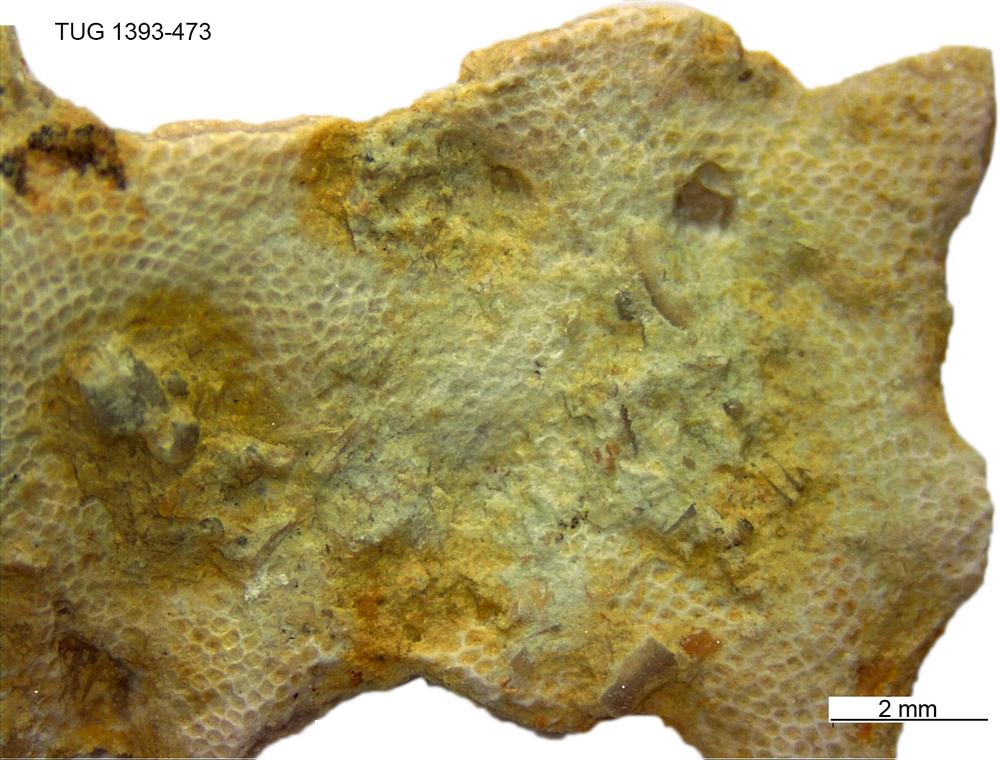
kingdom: Animalia
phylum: Bryozoa
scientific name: Bryozoa
